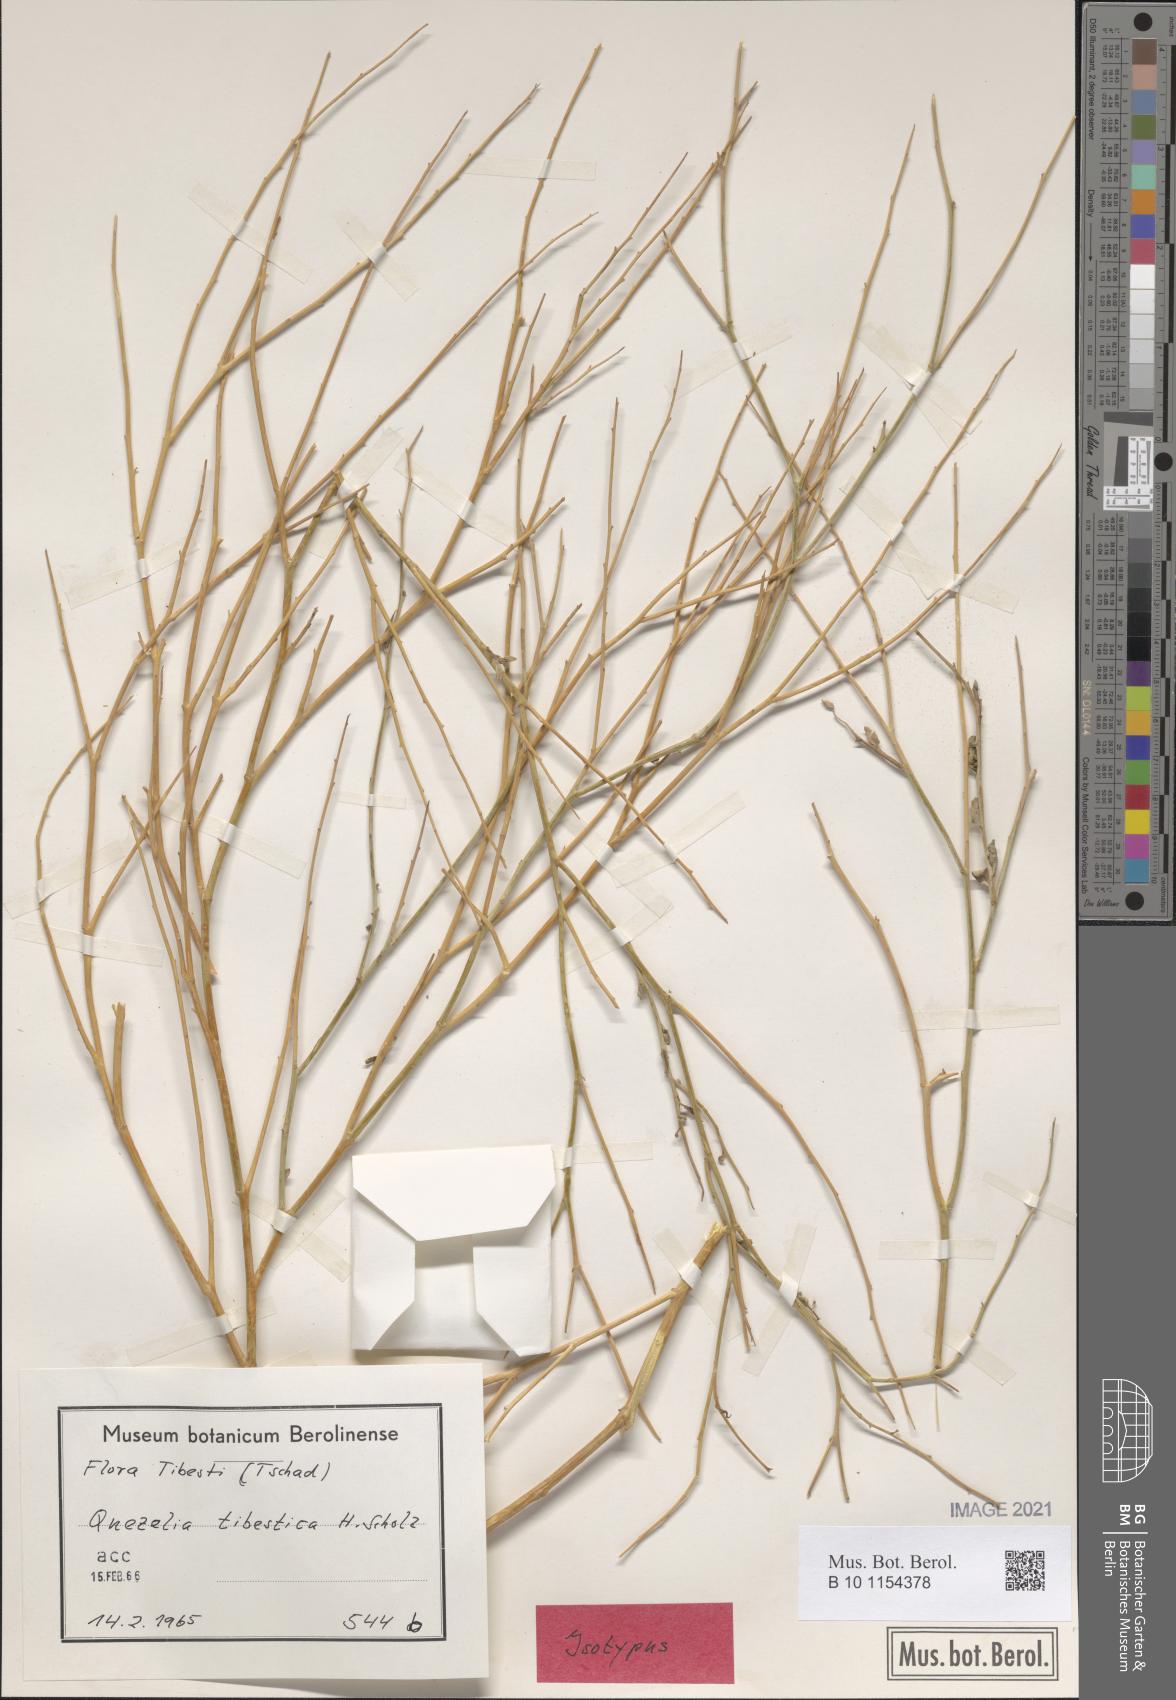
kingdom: Plantae
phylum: Tracheophyta
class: Magnoliopsida
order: Brassicales
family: Brassicaceae
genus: Quezeliantha
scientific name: Quezeliantha tibestica
